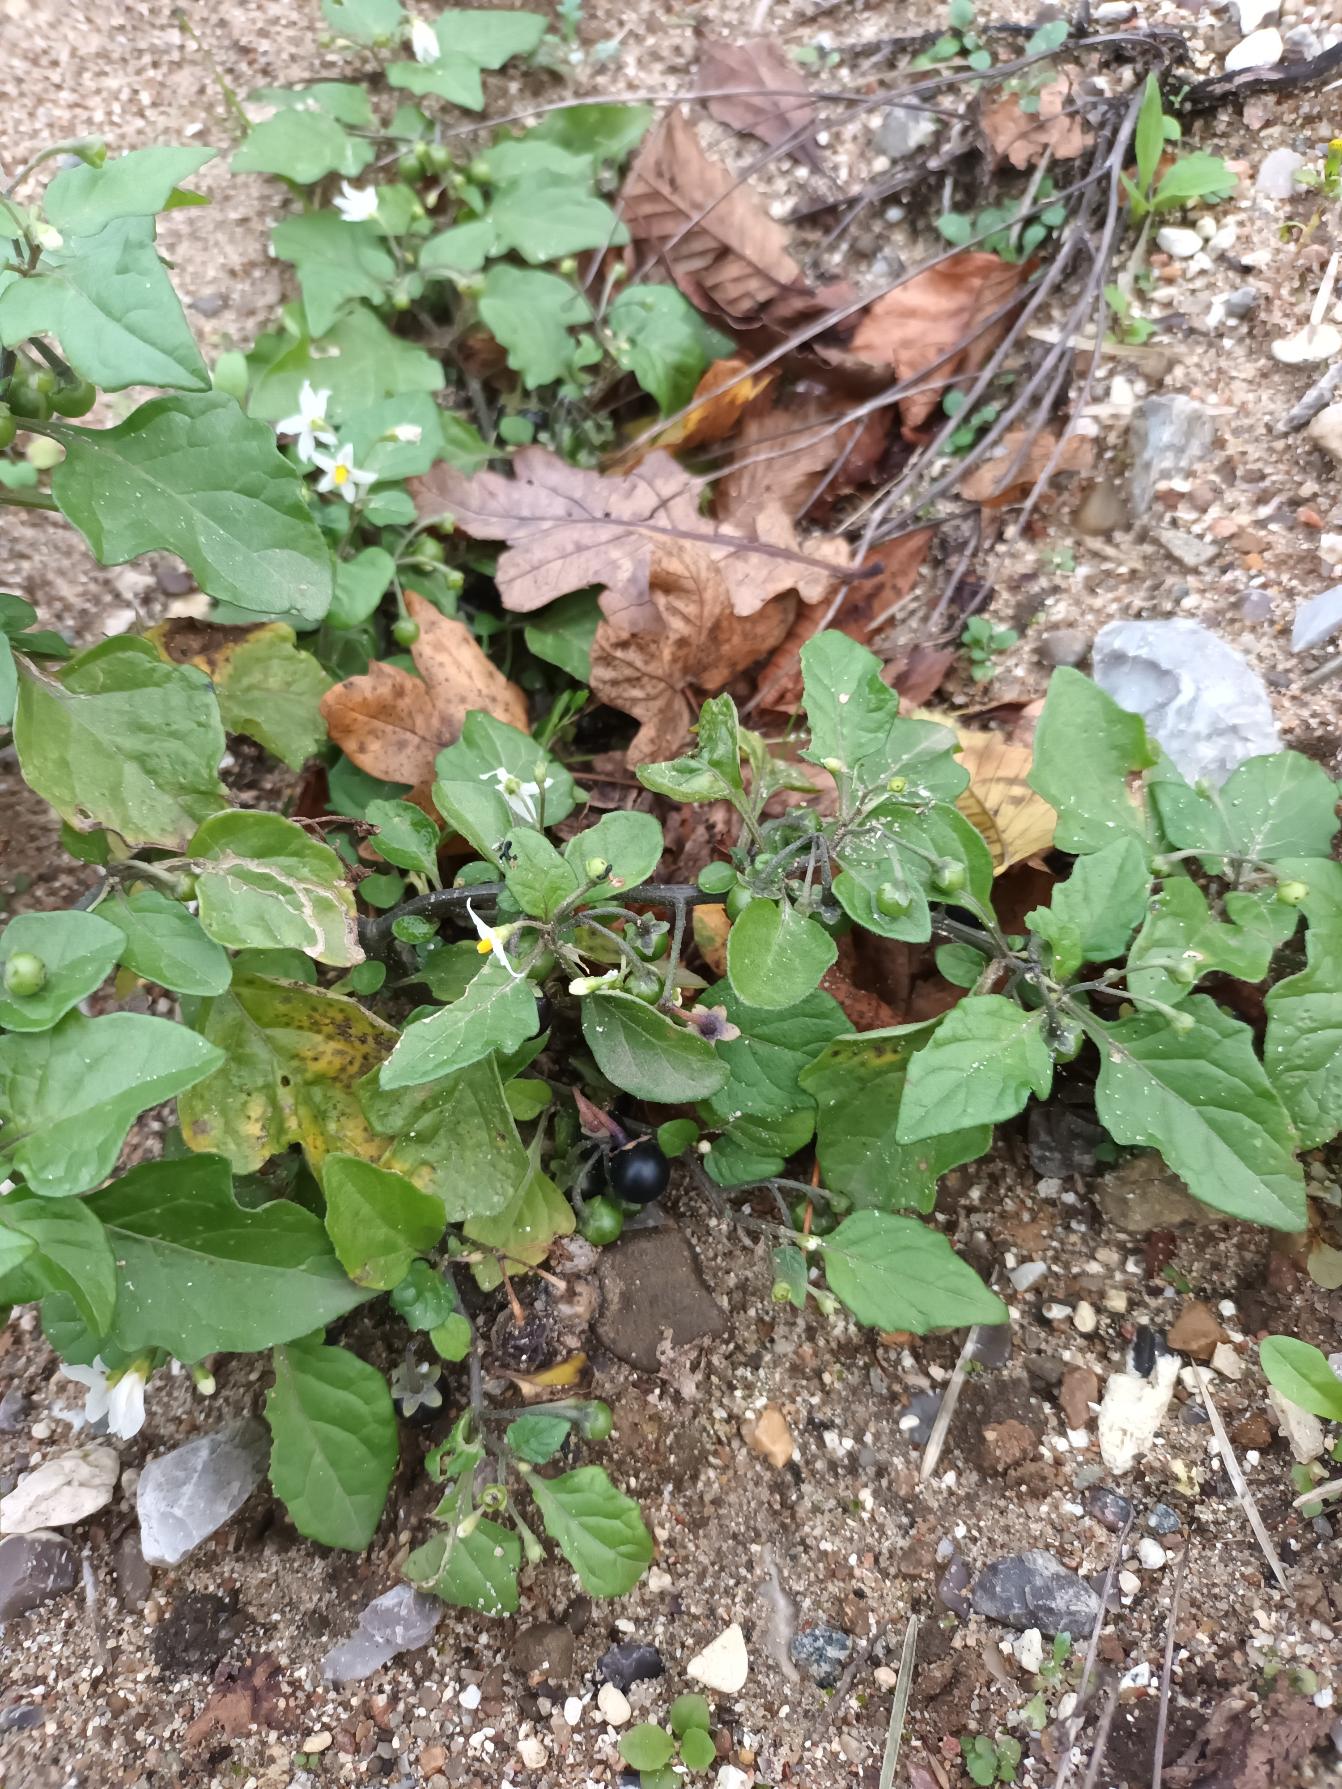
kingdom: Plantae
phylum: Tracheophyta
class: Magnoliopsida
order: Solanales
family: Solanaceae
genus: Solanum
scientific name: Solanum nigrum
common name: Sort natskygge
